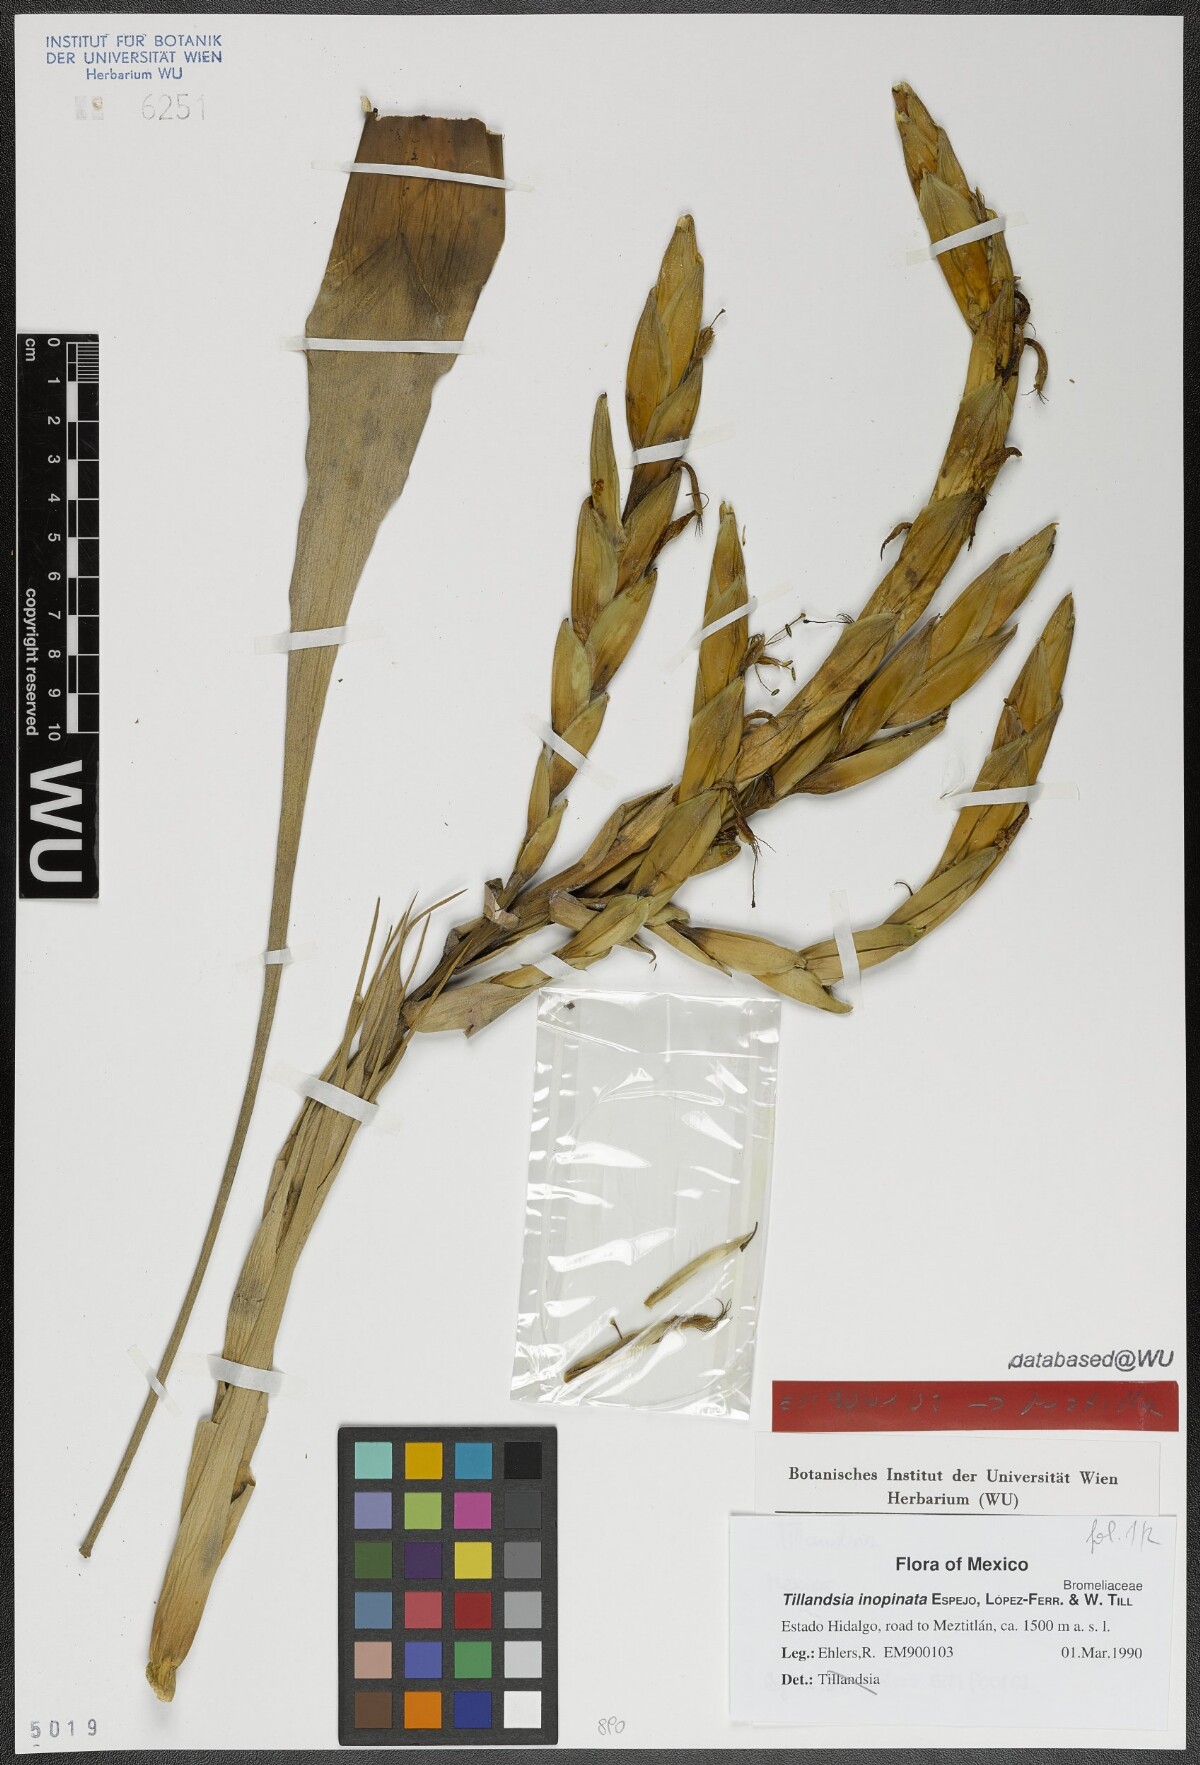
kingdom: Plantae
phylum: Tracheophyta
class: Liliopsida
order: Poales
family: Bromeliaceae
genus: Tillandsia
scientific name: Tillandsia inopinata
